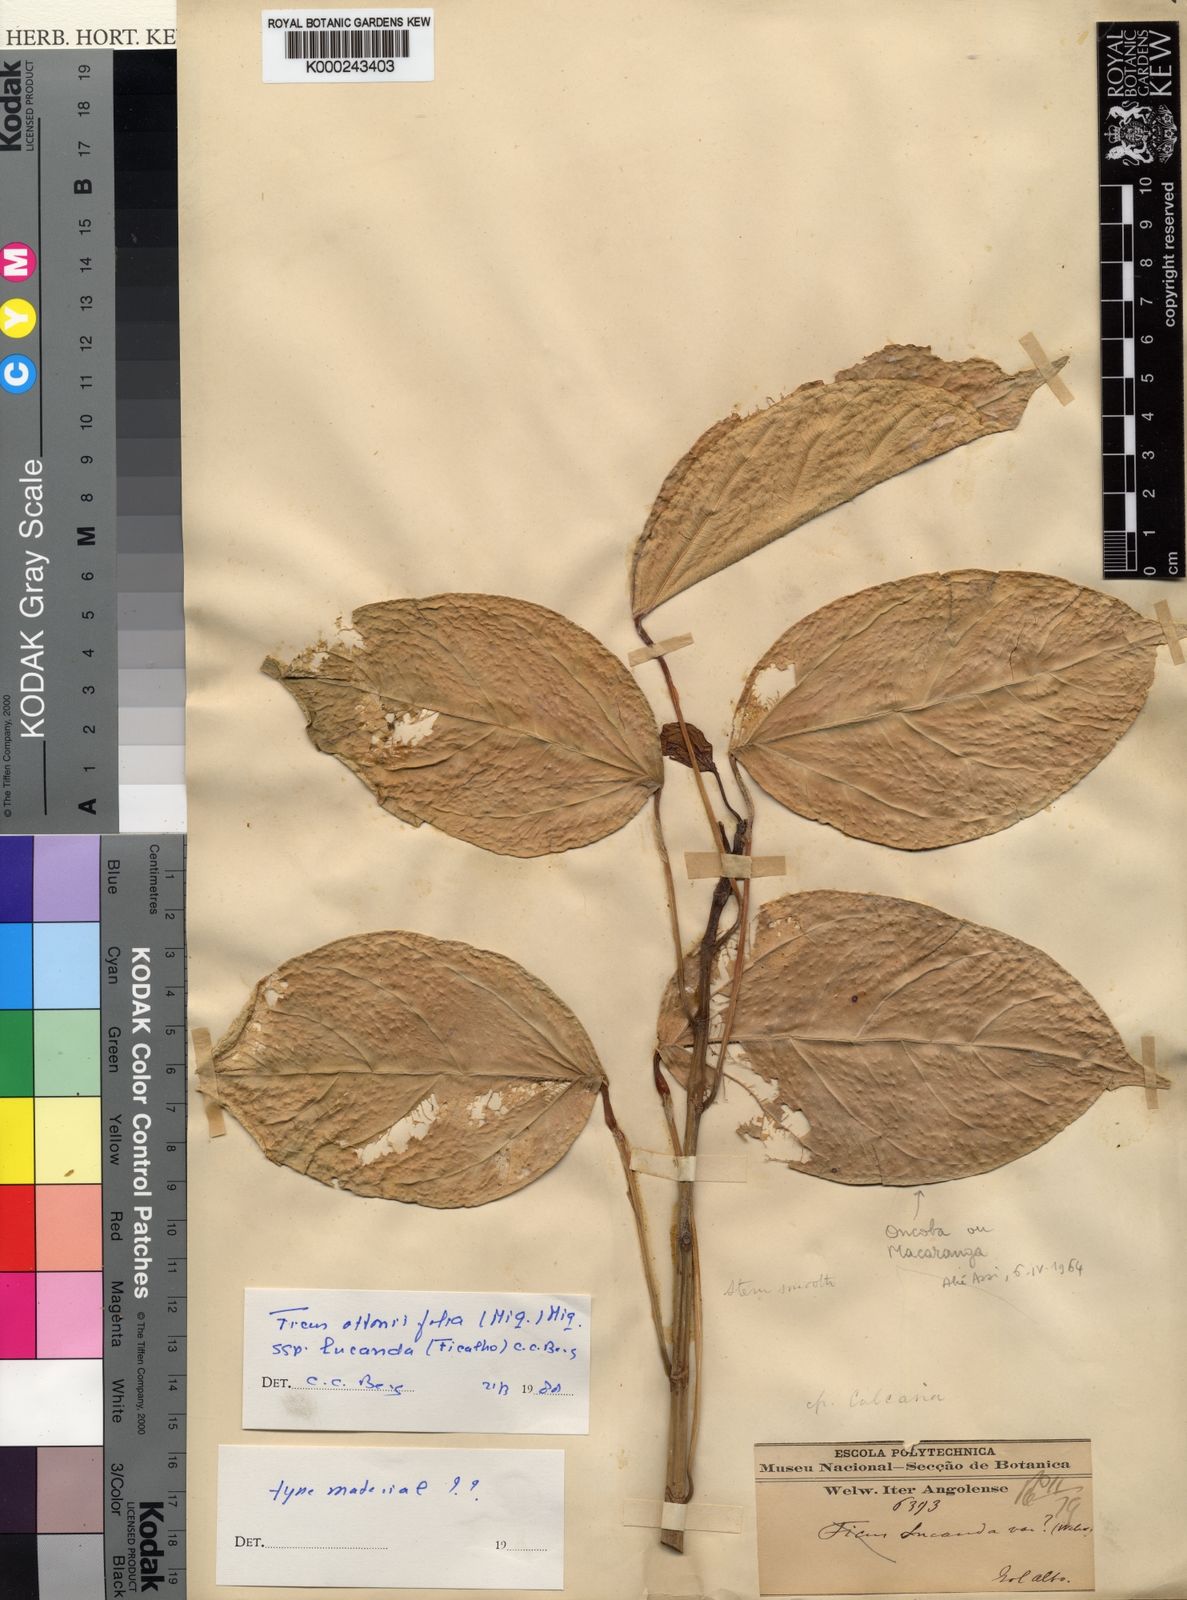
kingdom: Plantae
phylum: Tracheophyta
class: Magnoliopsida
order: Rosales
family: Moraceae
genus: Ficus
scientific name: Ficus ottoniifolia
